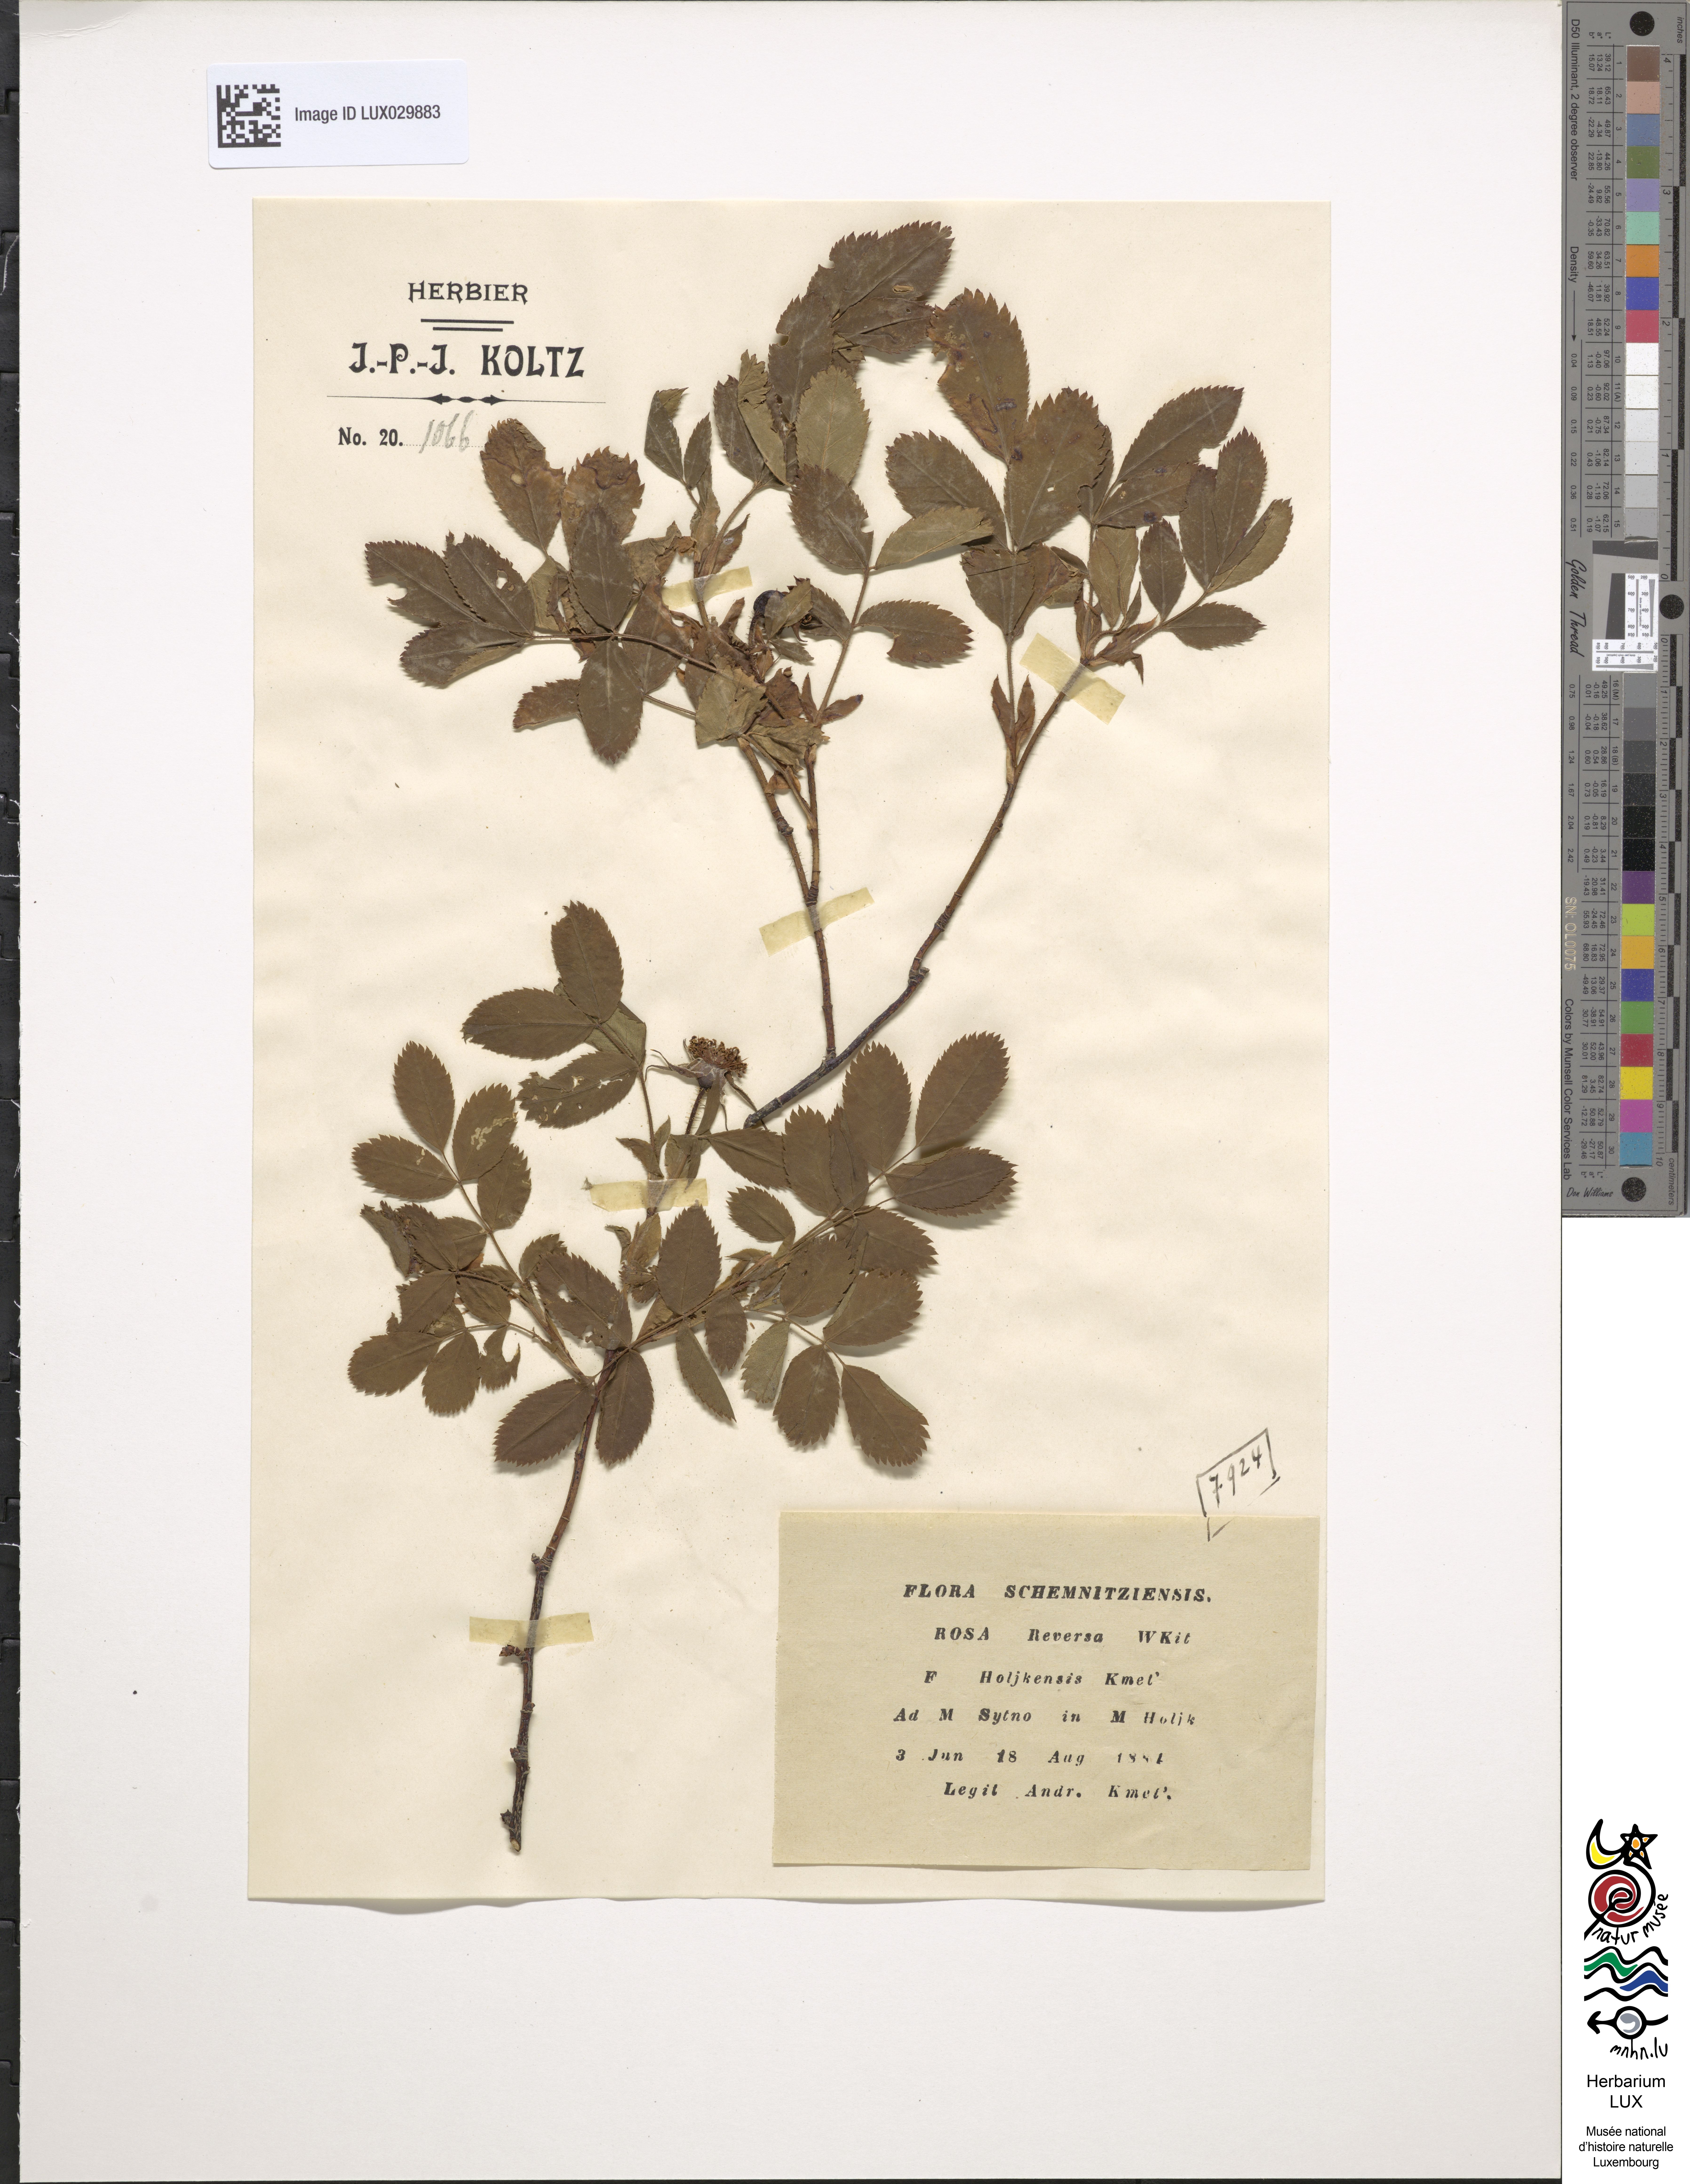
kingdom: Plantae
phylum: Tracheophyta
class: Magnoliopsida
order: Rosales
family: Rosaceae
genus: Rosa
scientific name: Rosa reversa
